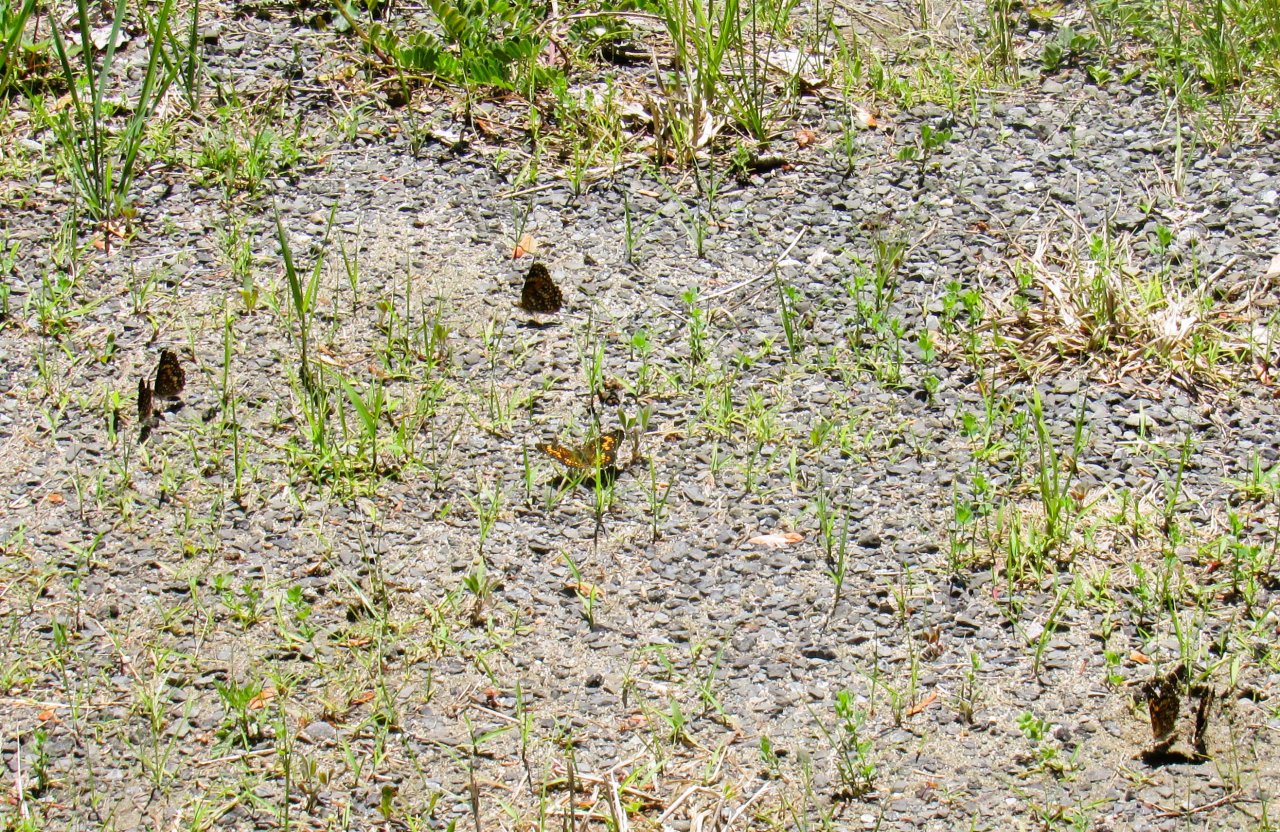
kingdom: Animalia
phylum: Arthropoda
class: Insecta
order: Lepidoptera
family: Nymphalidae
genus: Chlosyne
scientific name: Chlosyne harrisii
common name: Harris's Checkerspot
